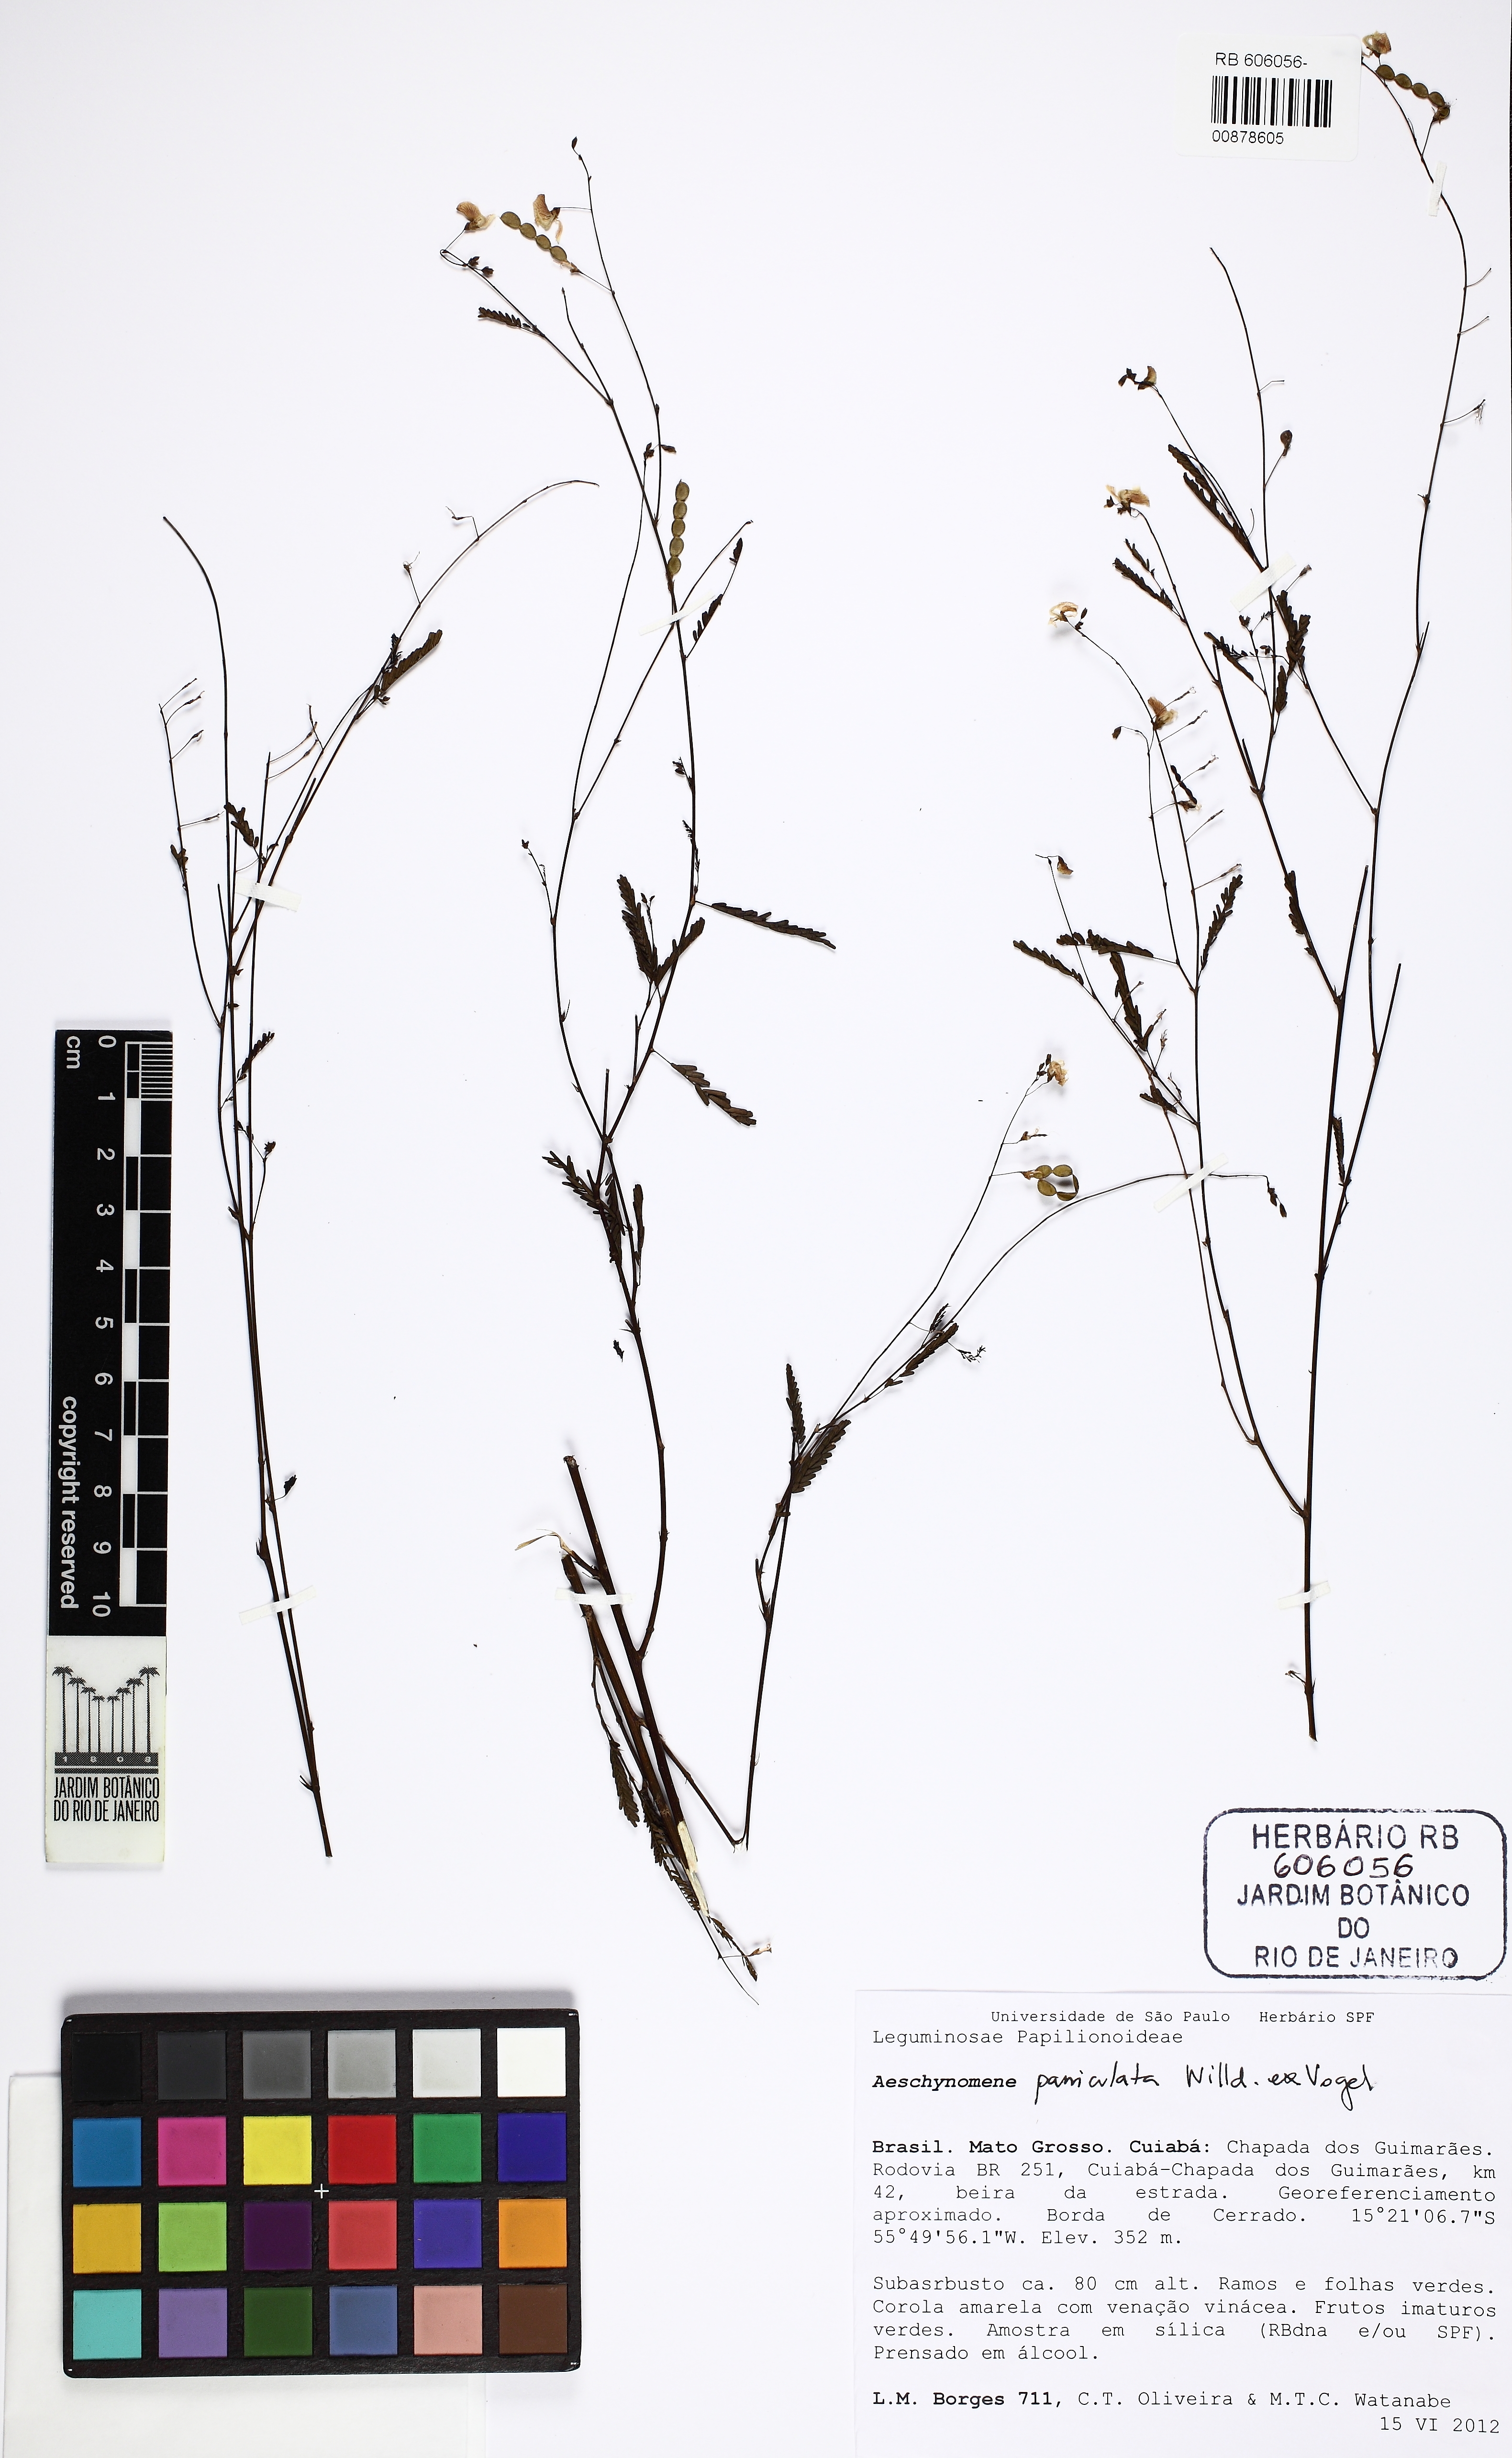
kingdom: Plantae
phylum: Tracheophyta
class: Magnoliopsida
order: Fabales
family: Fabaceae
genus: Ctenodon
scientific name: Ctenodon paniculatus
